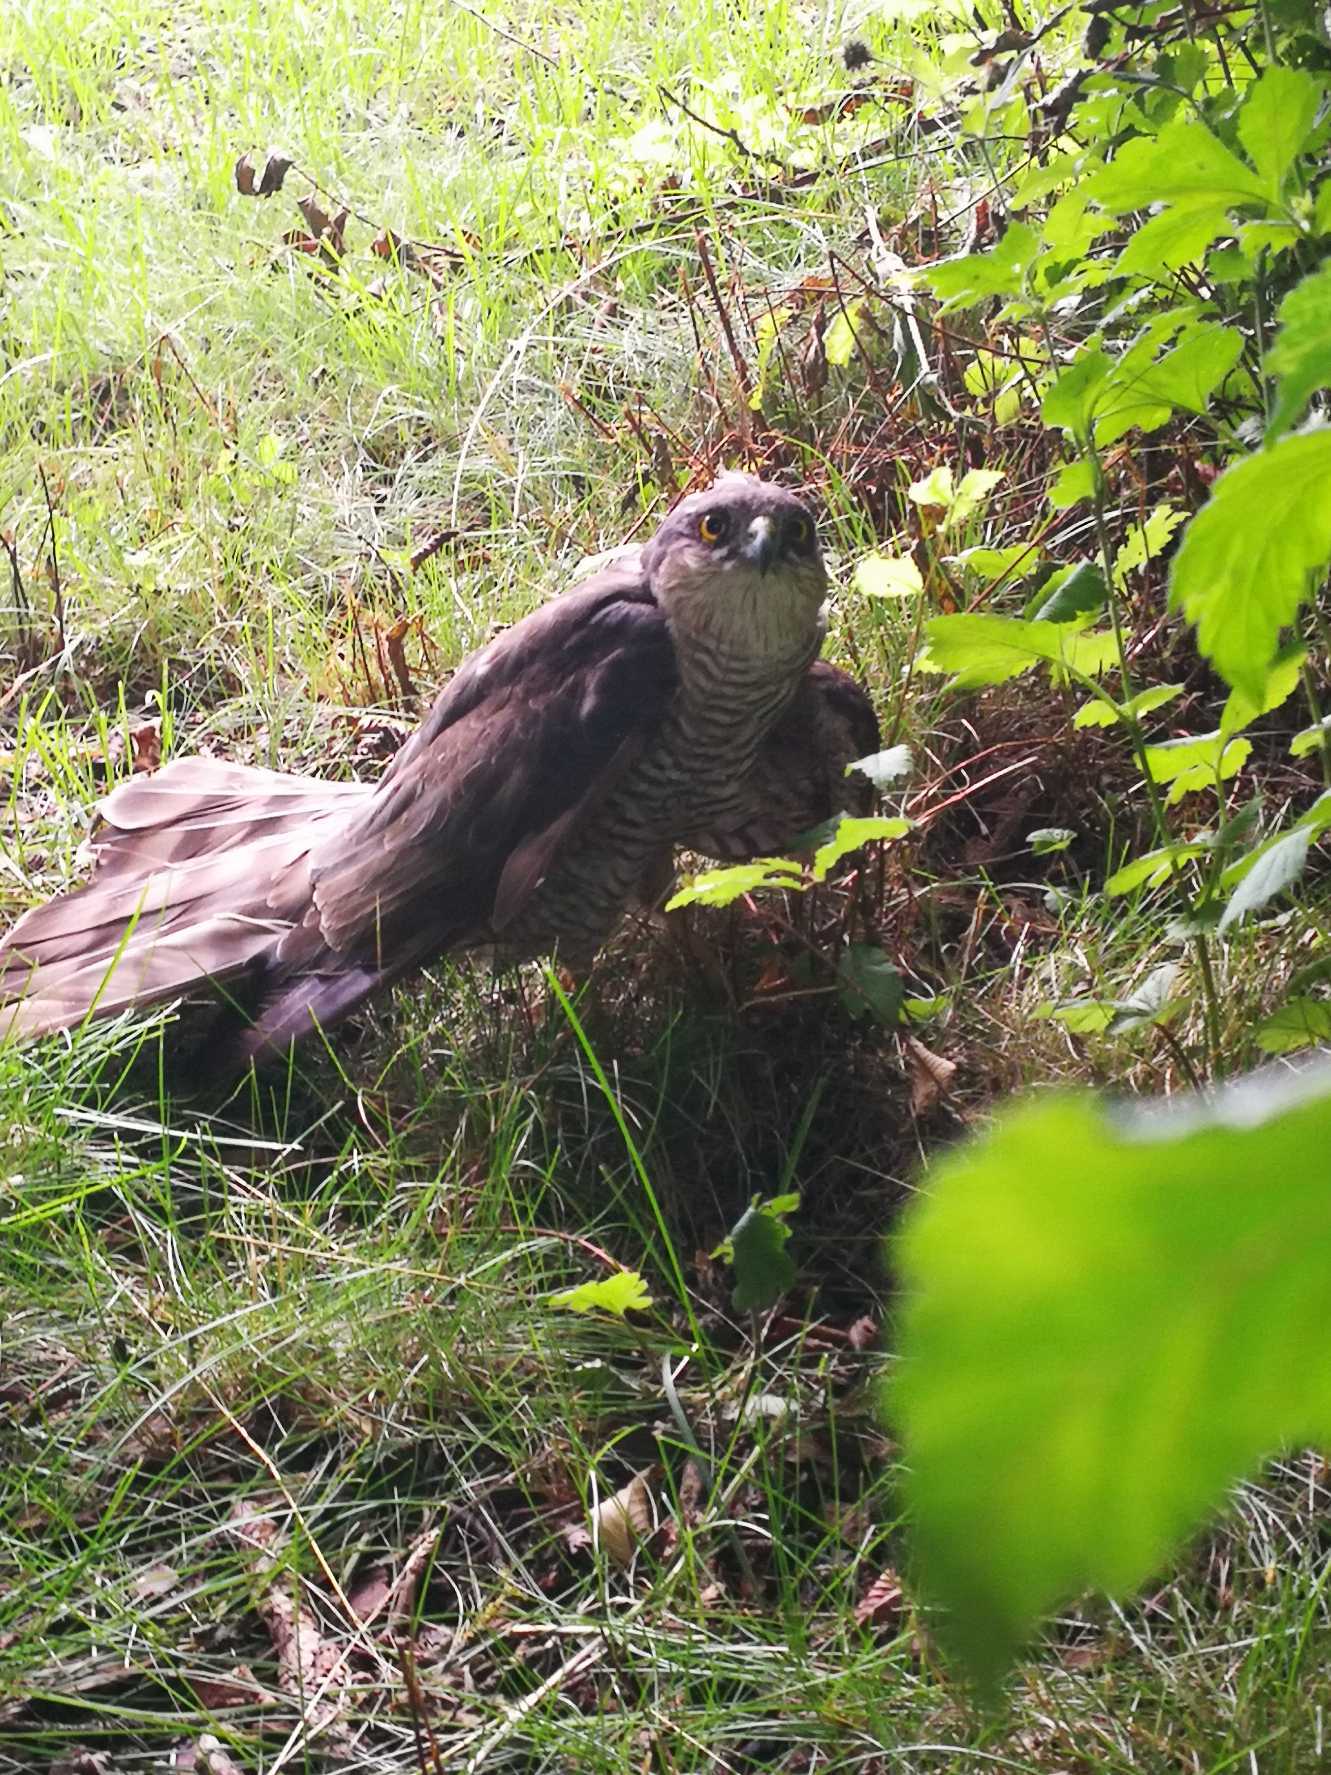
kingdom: Animalia
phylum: Chordata
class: Aves
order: Accipitriformes
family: Accipitridae
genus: Accipiter
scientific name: Accipiter nisus
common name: Spurvehøg
